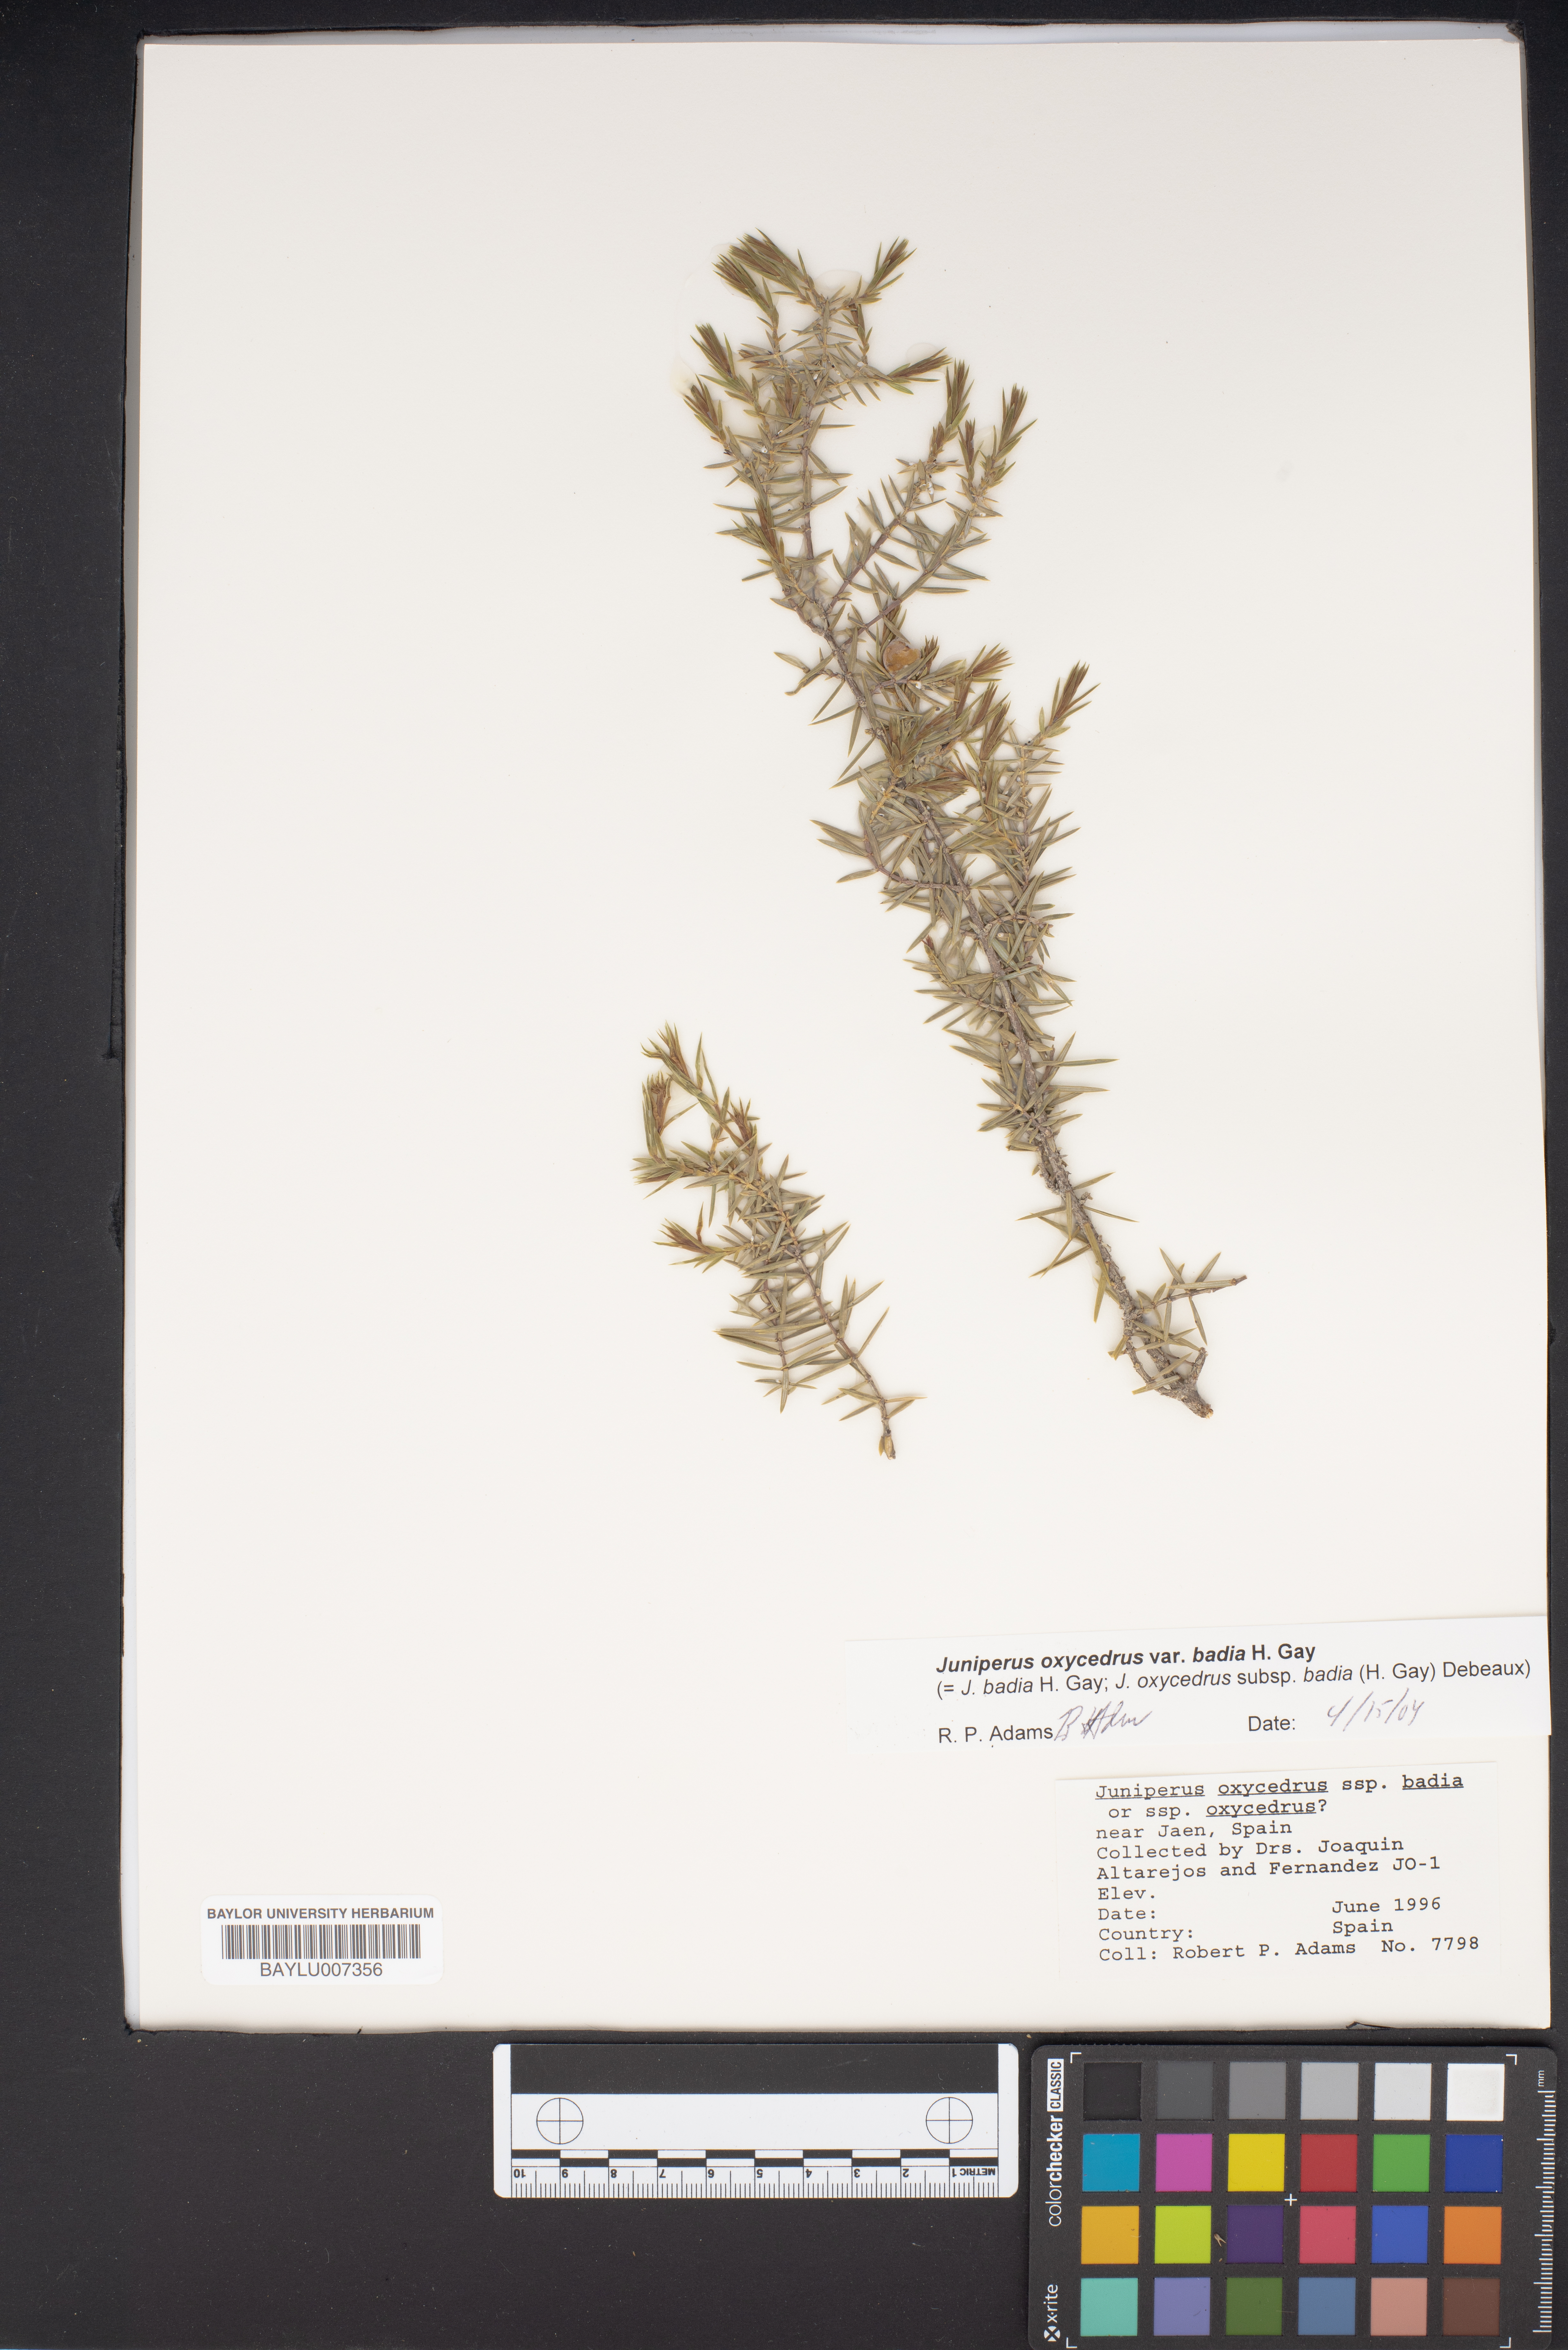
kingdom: Plantae
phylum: Tracheophyta
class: Pinopsida
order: Pinales
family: Cupressaceae
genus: Juniperus
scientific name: Juniperus oxycedrus
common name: Prickly juniper
